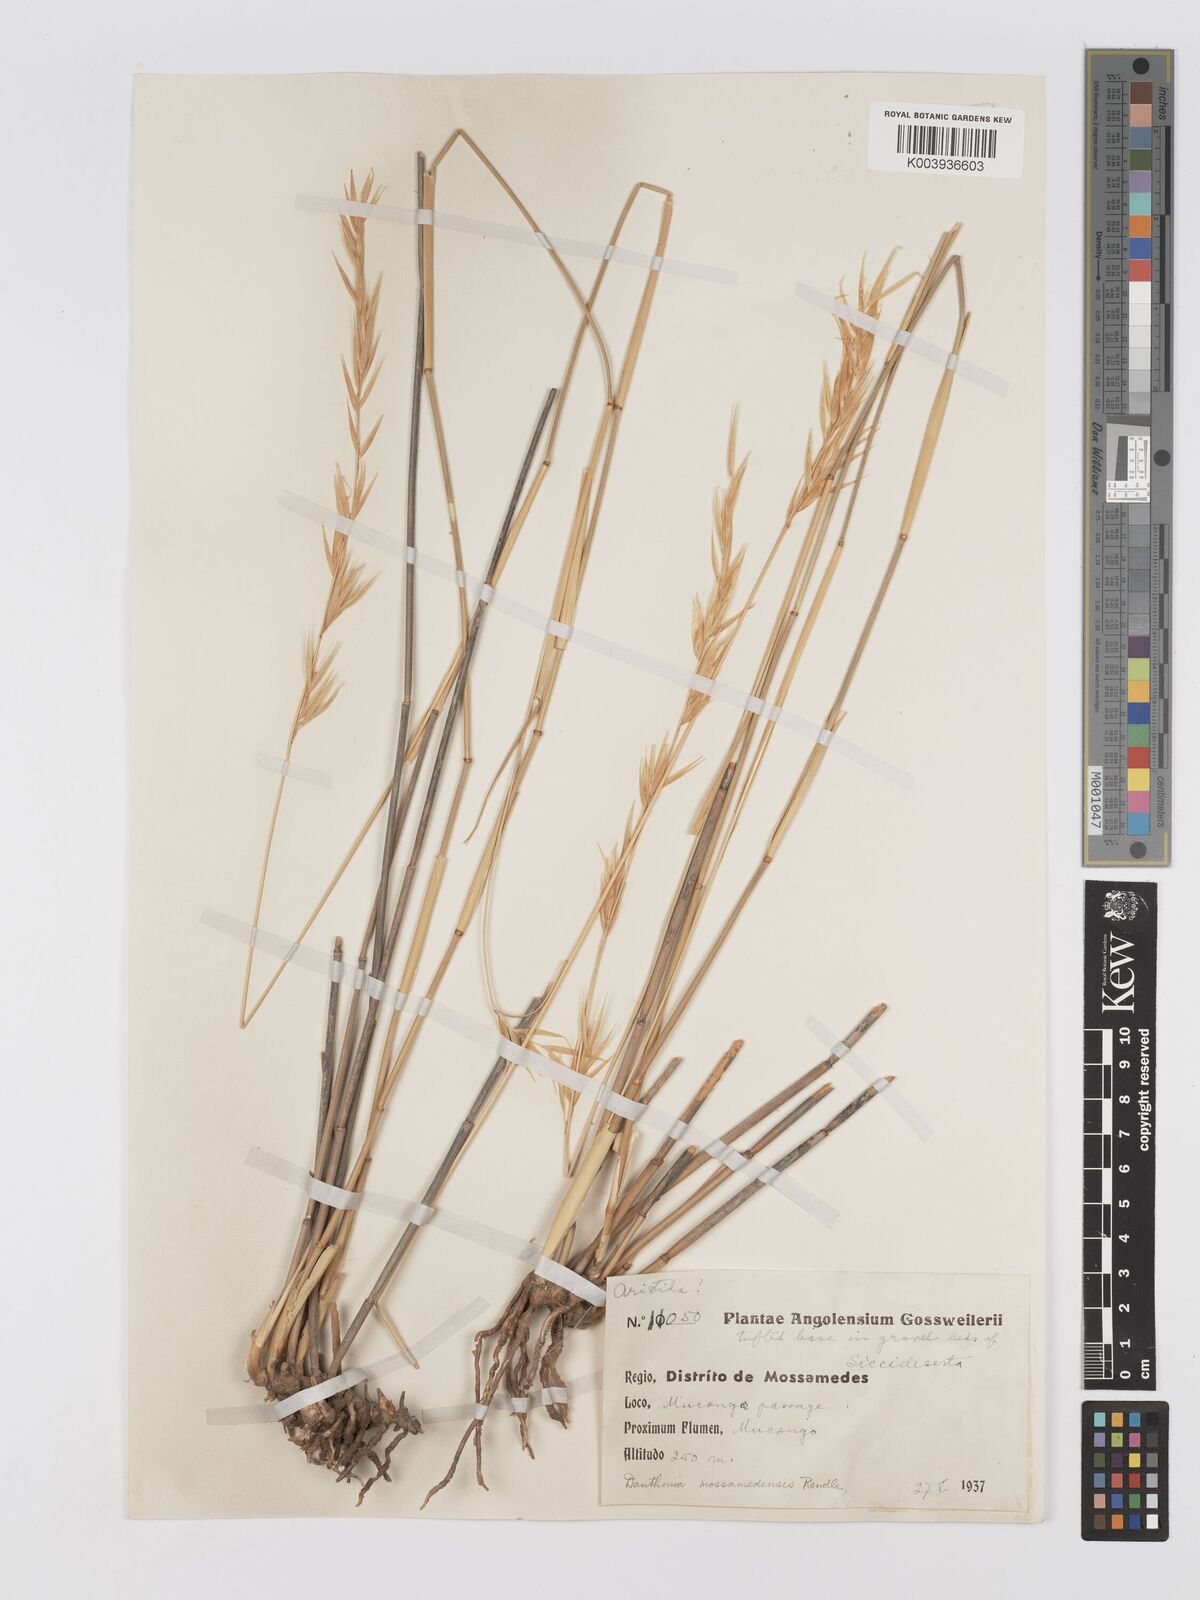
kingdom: Plantae
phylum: Tracheophyta
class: Liliopsida
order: Poales
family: Poaceae
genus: Centropodia
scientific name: Centropodia mossamedensis
